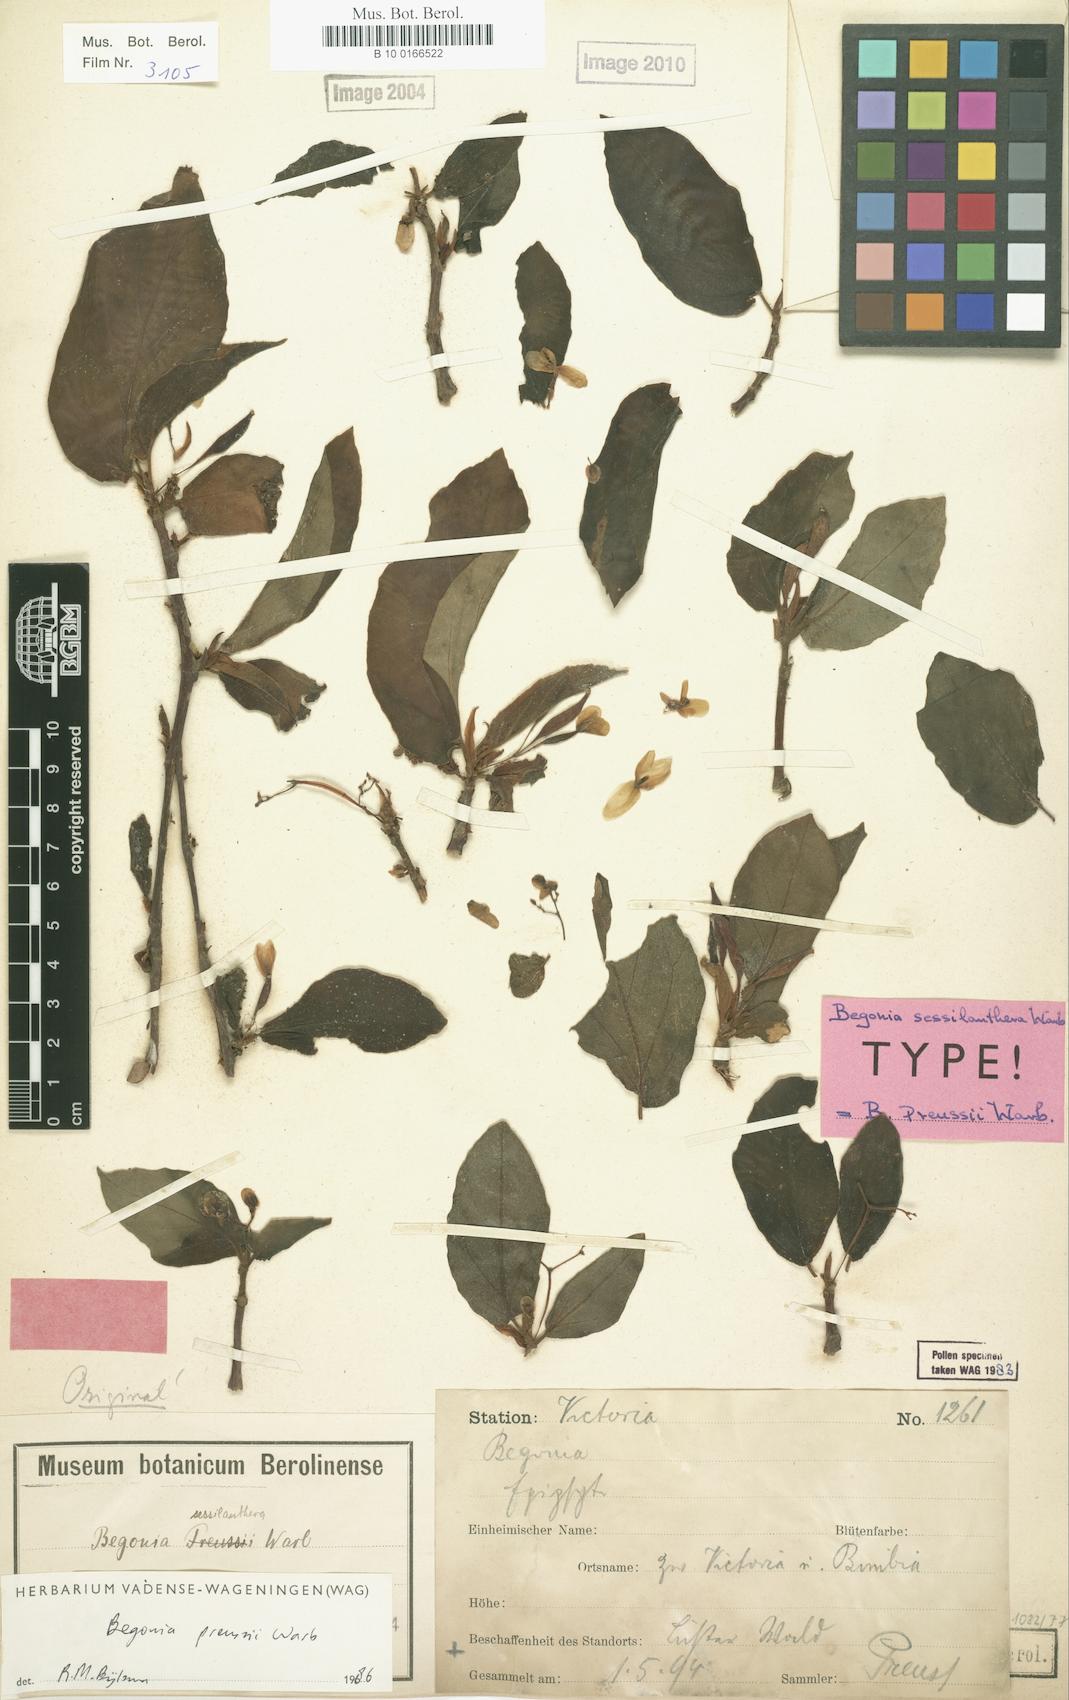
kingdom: Plantae
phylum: Tracheophyta
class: Magnoliopsida
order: Cucurbitales
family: Begoniaceae
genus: Begonia
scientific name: Begonia preussii
